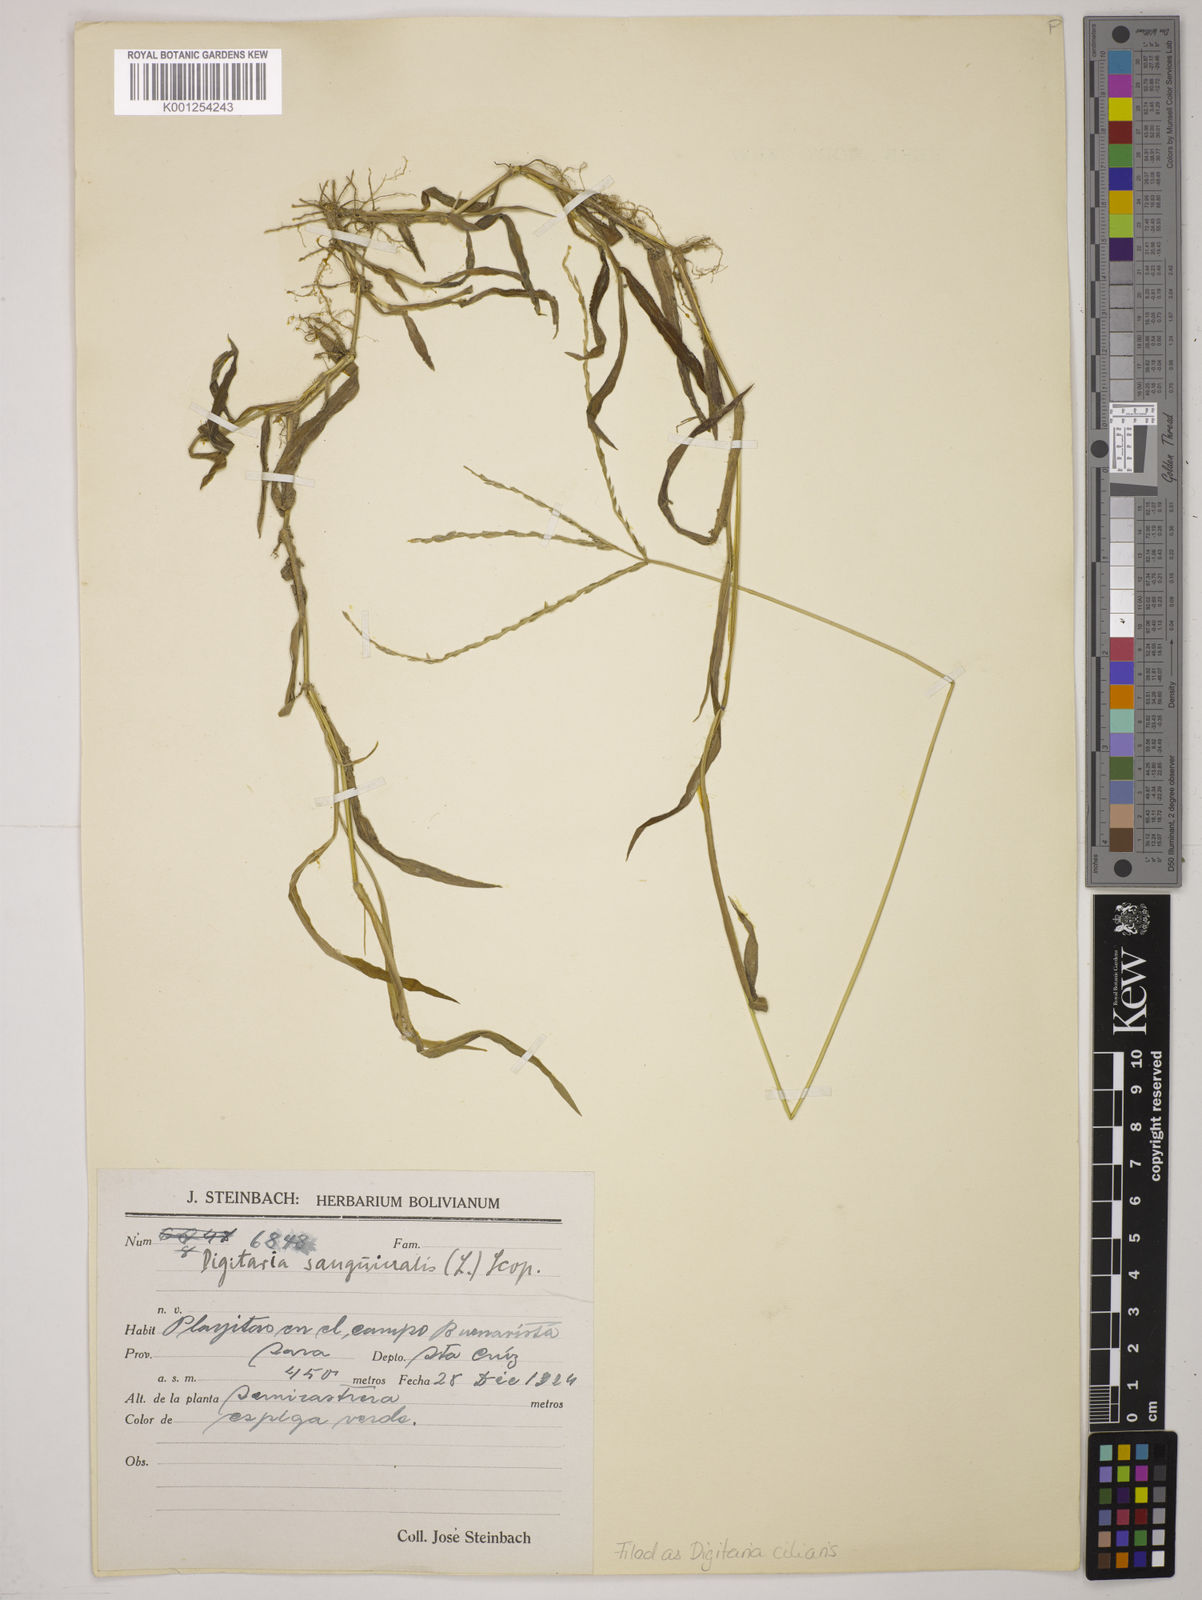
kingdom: Plantae
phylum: Tracheophyta
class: Liliopsida
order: Poales
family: Poaceae
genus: Digitaria
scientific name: Digitaria
